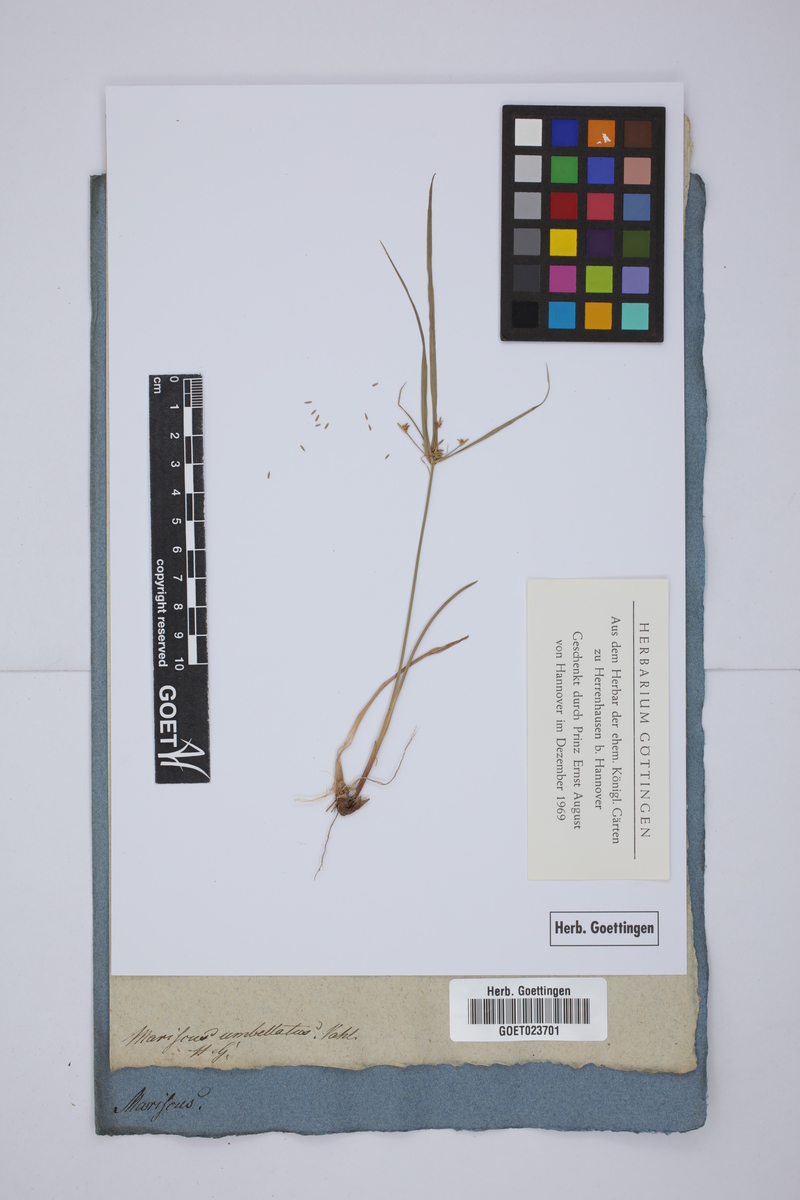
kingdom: Plantae
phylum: Tracheophyta
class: Liliopsida
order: Poales
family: Cyperaceae
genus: Cyperus
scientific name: Cyperus cyperoides
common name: Pacific island flat sedge
